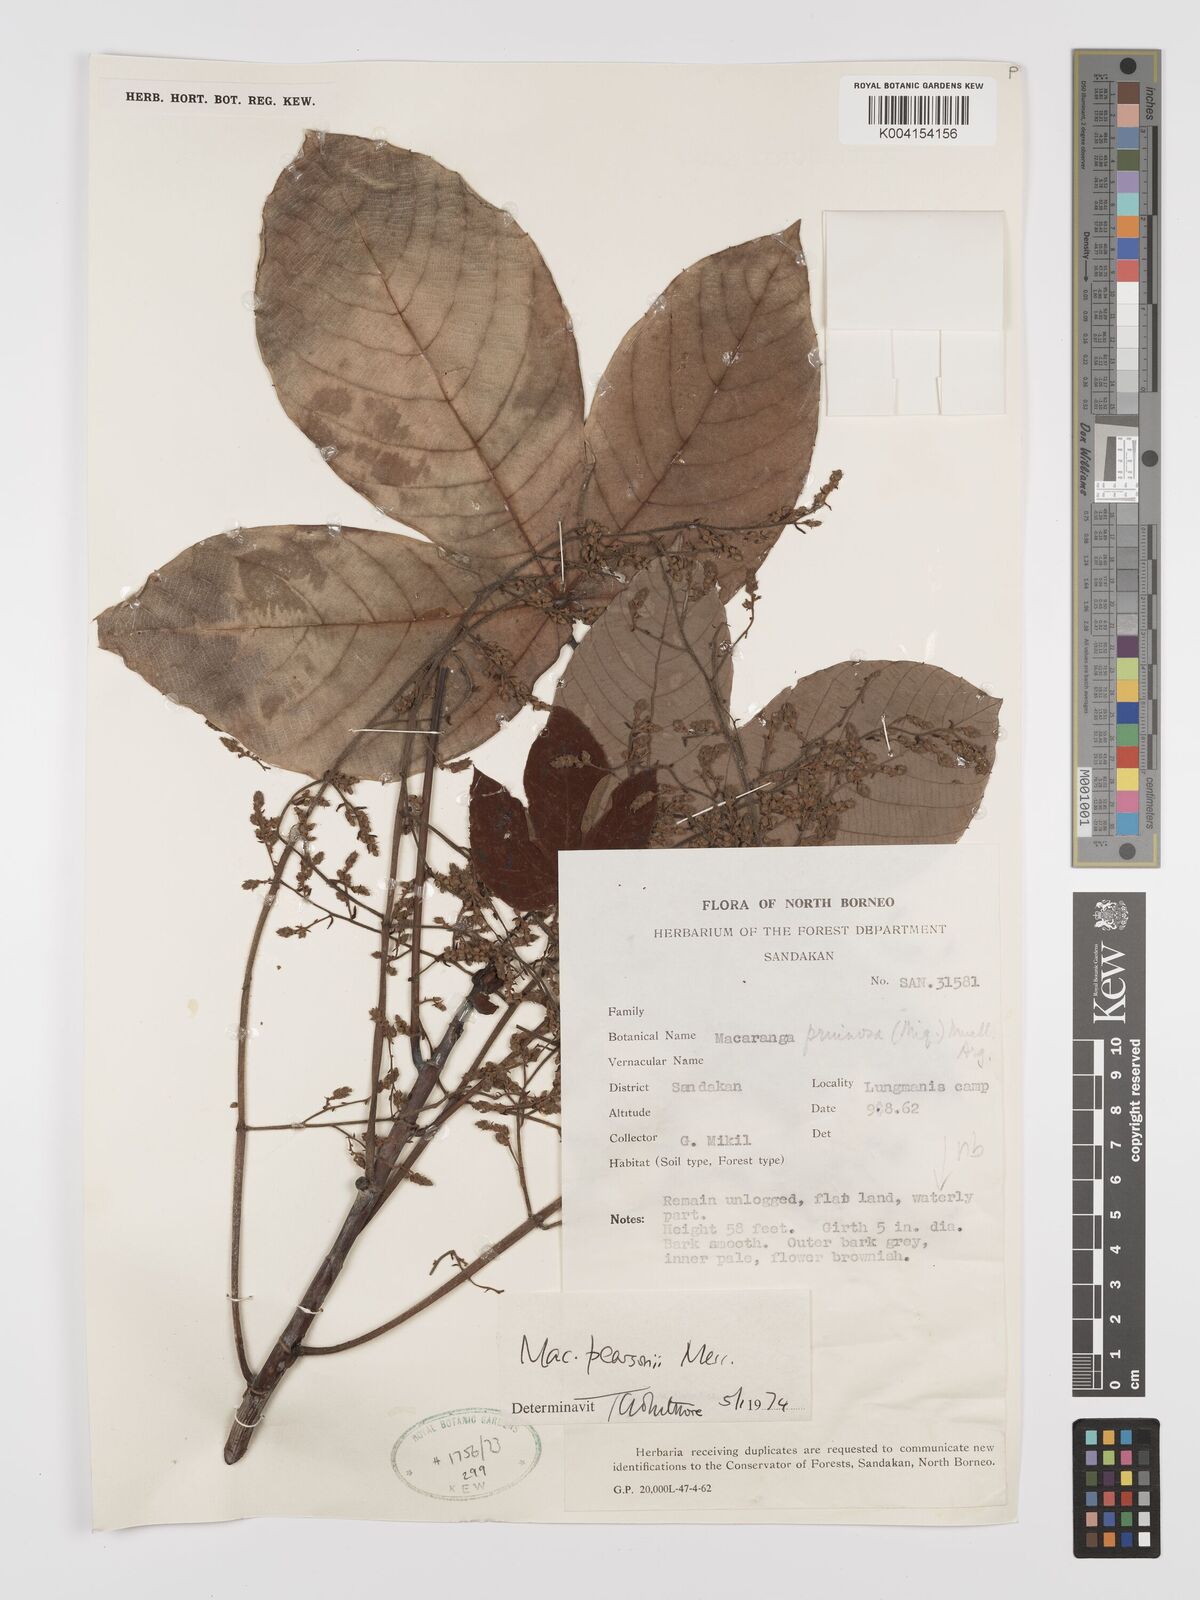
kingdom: Plantae
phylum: Tracheophyta
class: Magnoliopsida
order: Malpighiales
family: Euphorbiaceae
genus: Macaranga
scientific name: Macaranga pearsonii
